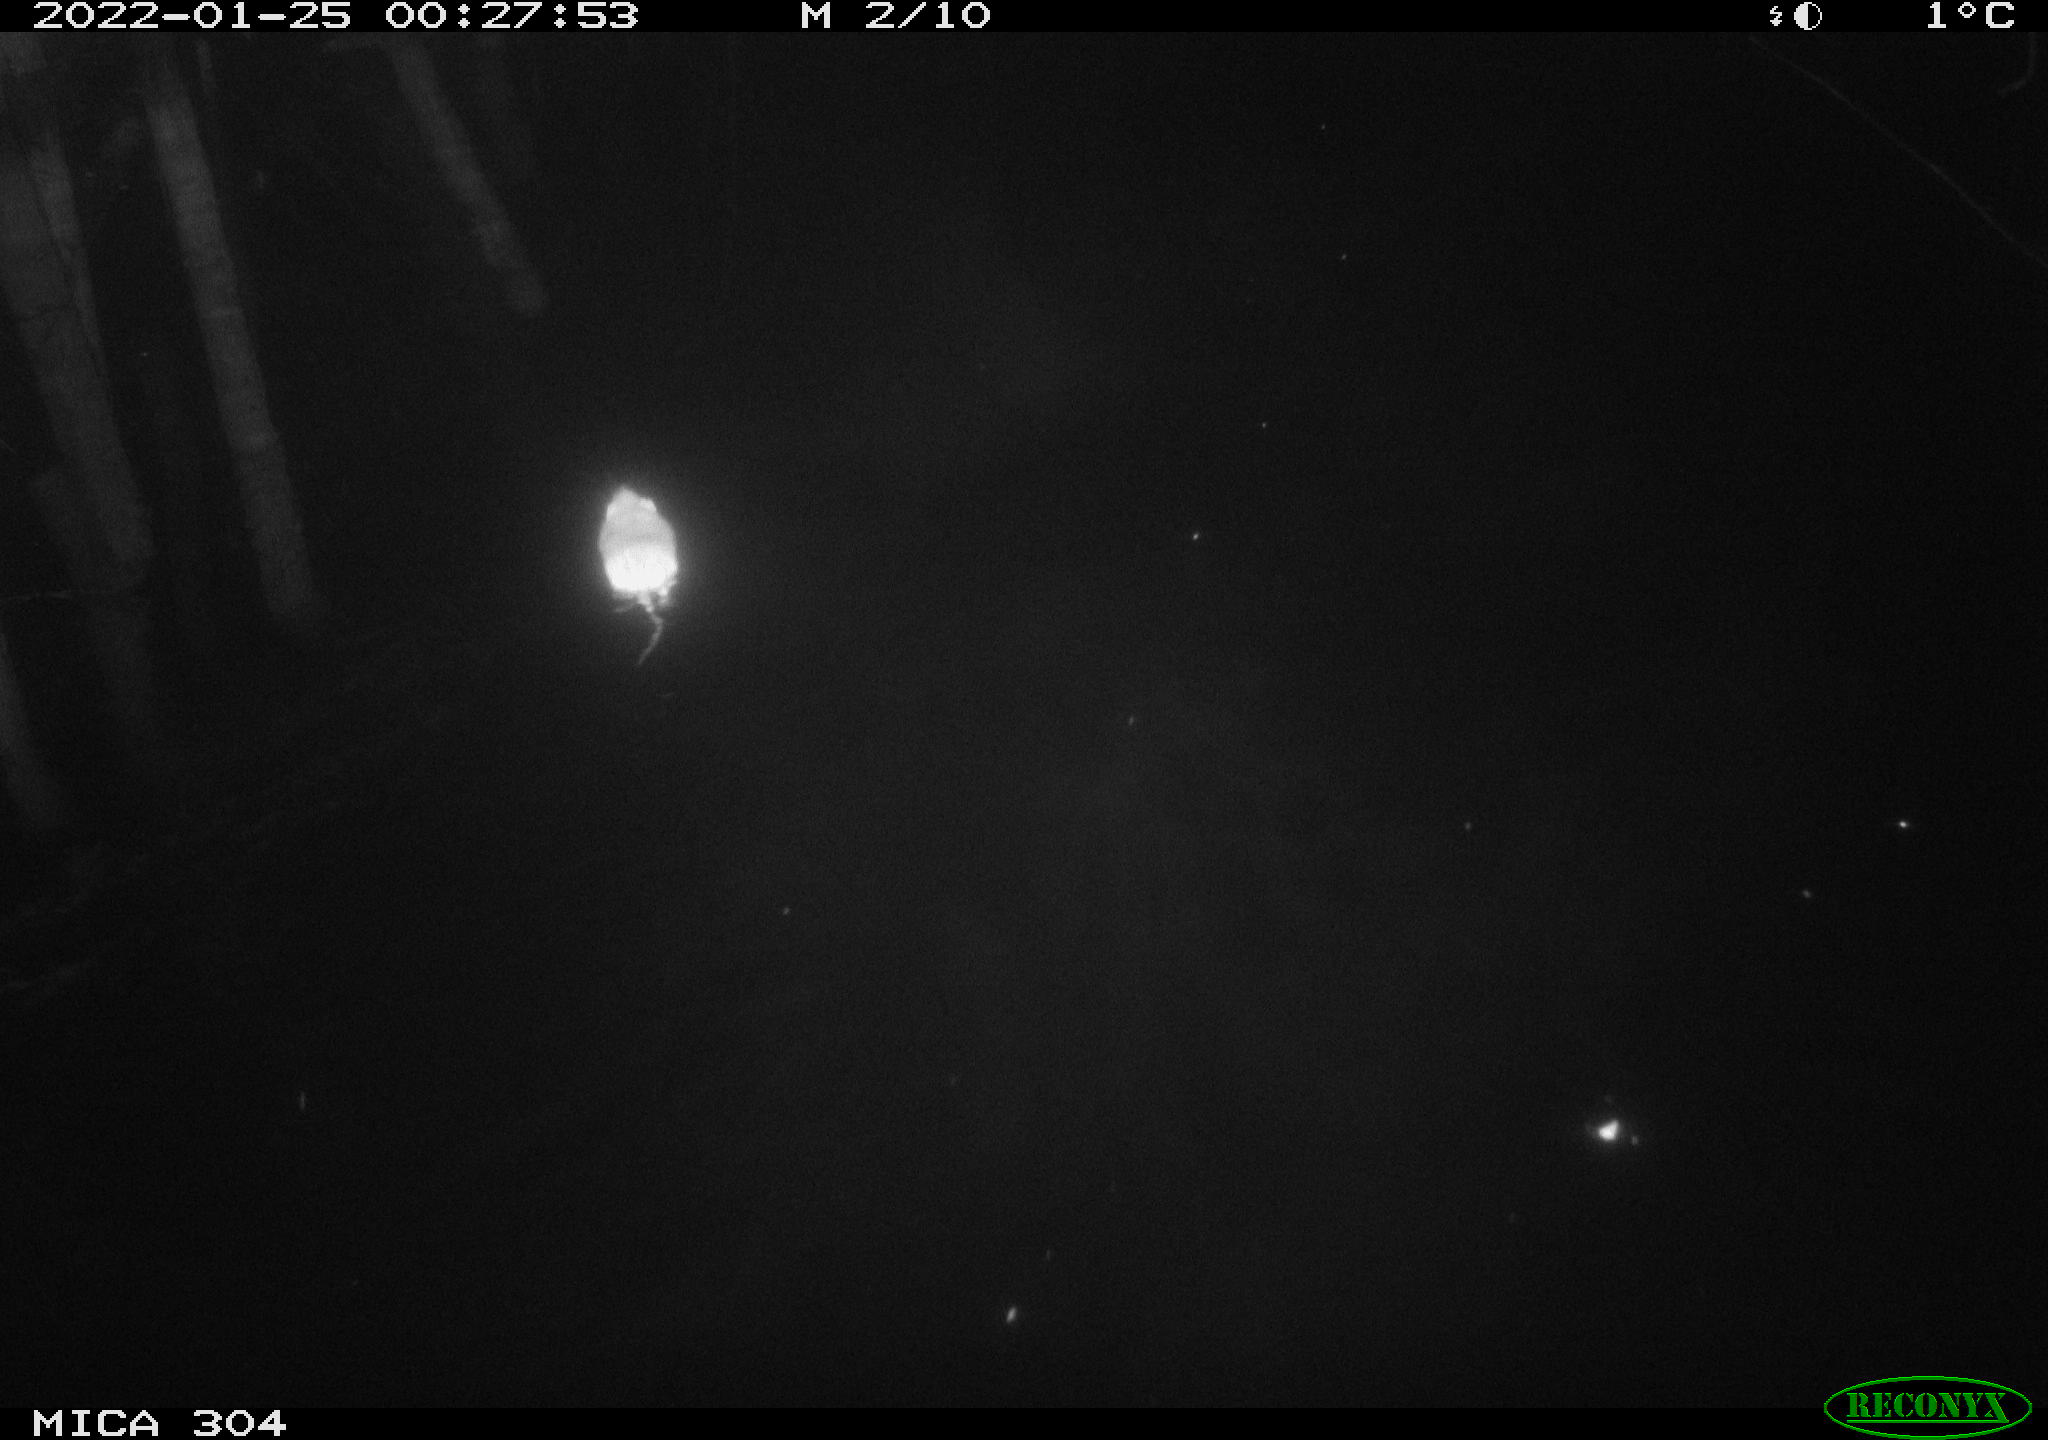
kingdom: Animalia
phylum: Chordata
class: Mammalia
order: Rodentia
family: Muridae
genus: Rattus
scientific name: Rattus norvegicus
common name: Brown rat
